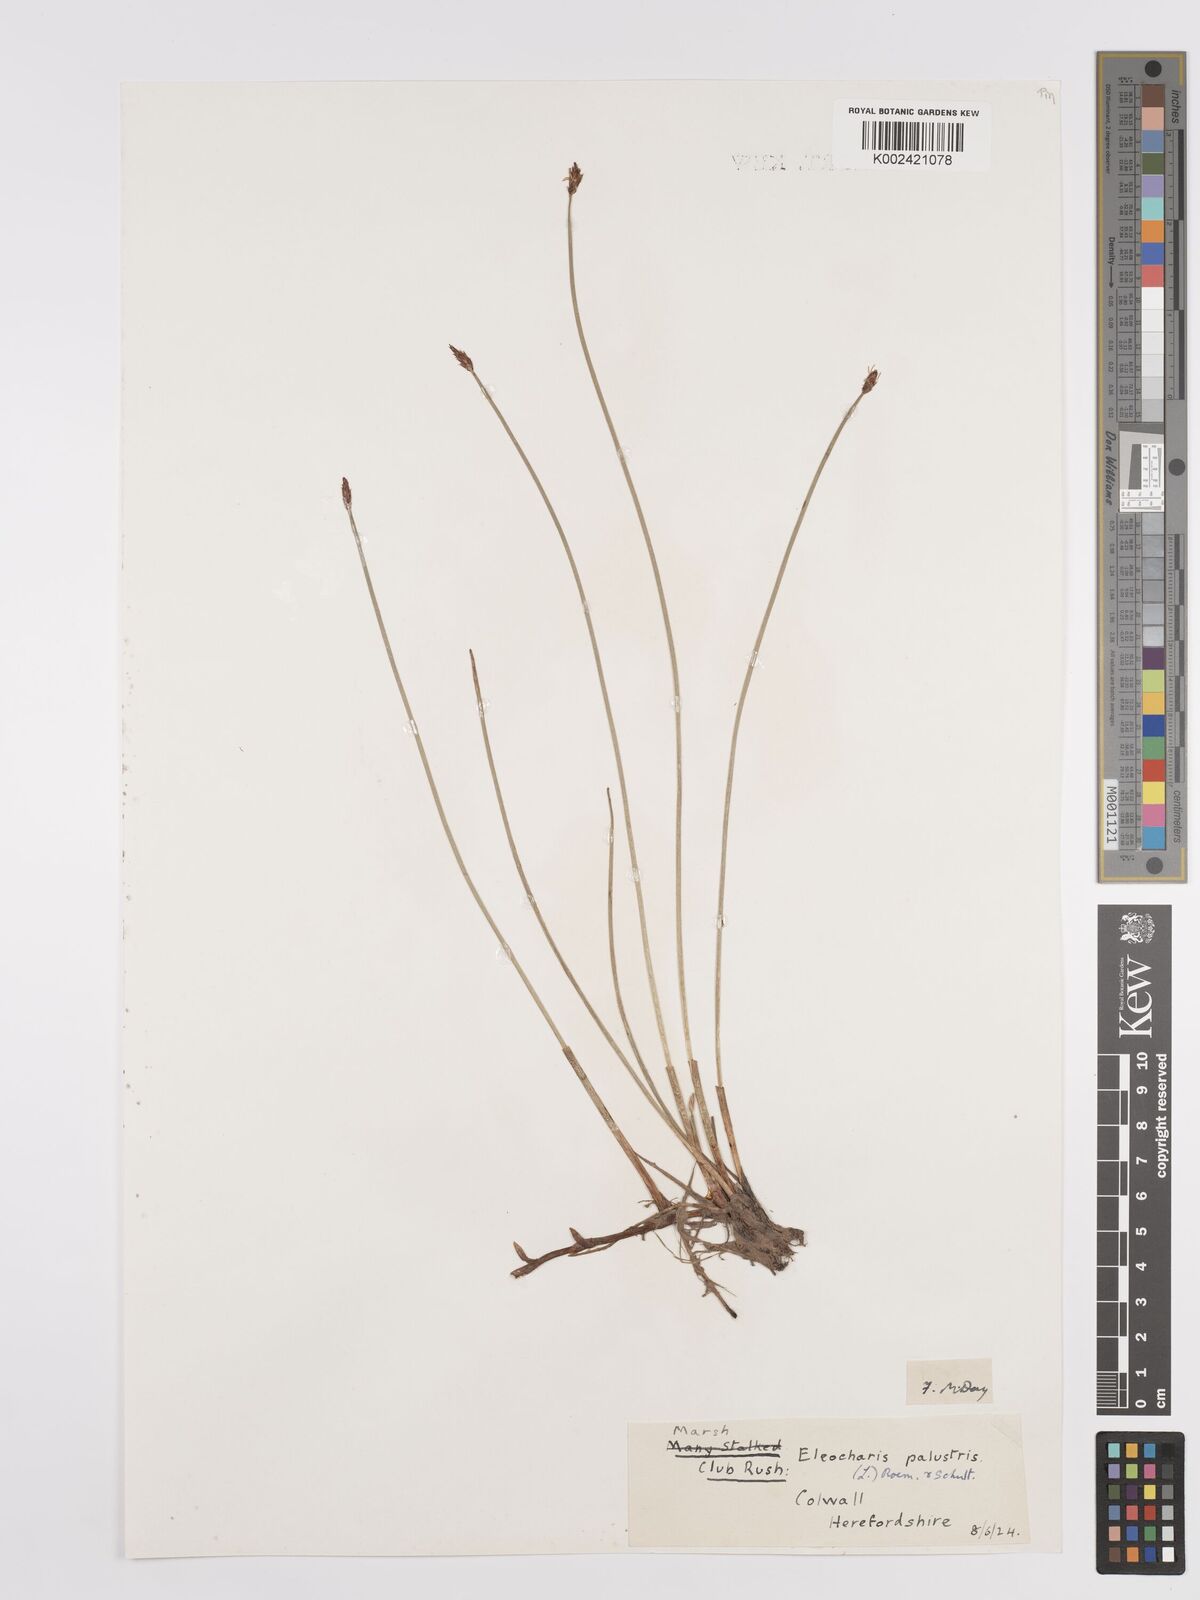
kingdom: Plantae
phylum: Tracheophyta
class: Liliopsida
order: Poales
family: Cyperaceae
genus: Eleocharis
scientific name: Eleocharis palustris
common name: Common spike-rush
